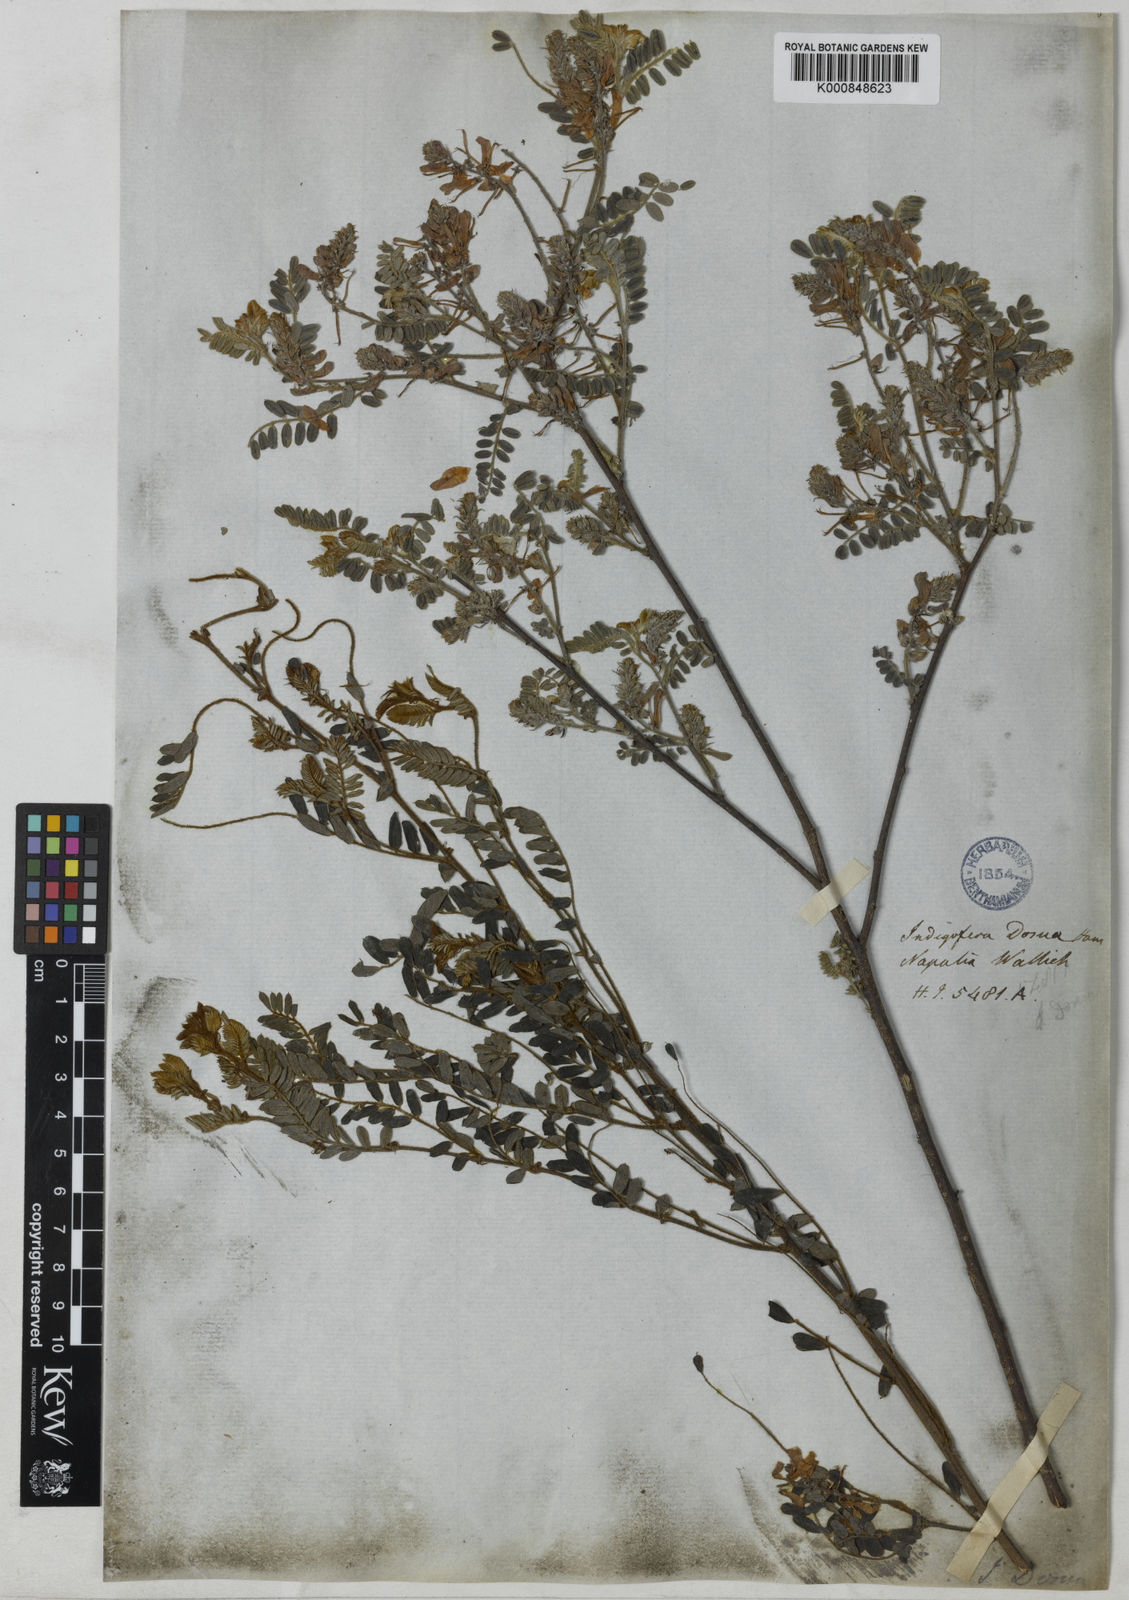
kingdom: Plantae
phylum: Tracheophyta
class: Magnoliopsida
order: Fabales
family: Fabaceae
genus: Indigofera
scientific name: Indigofera dosua
